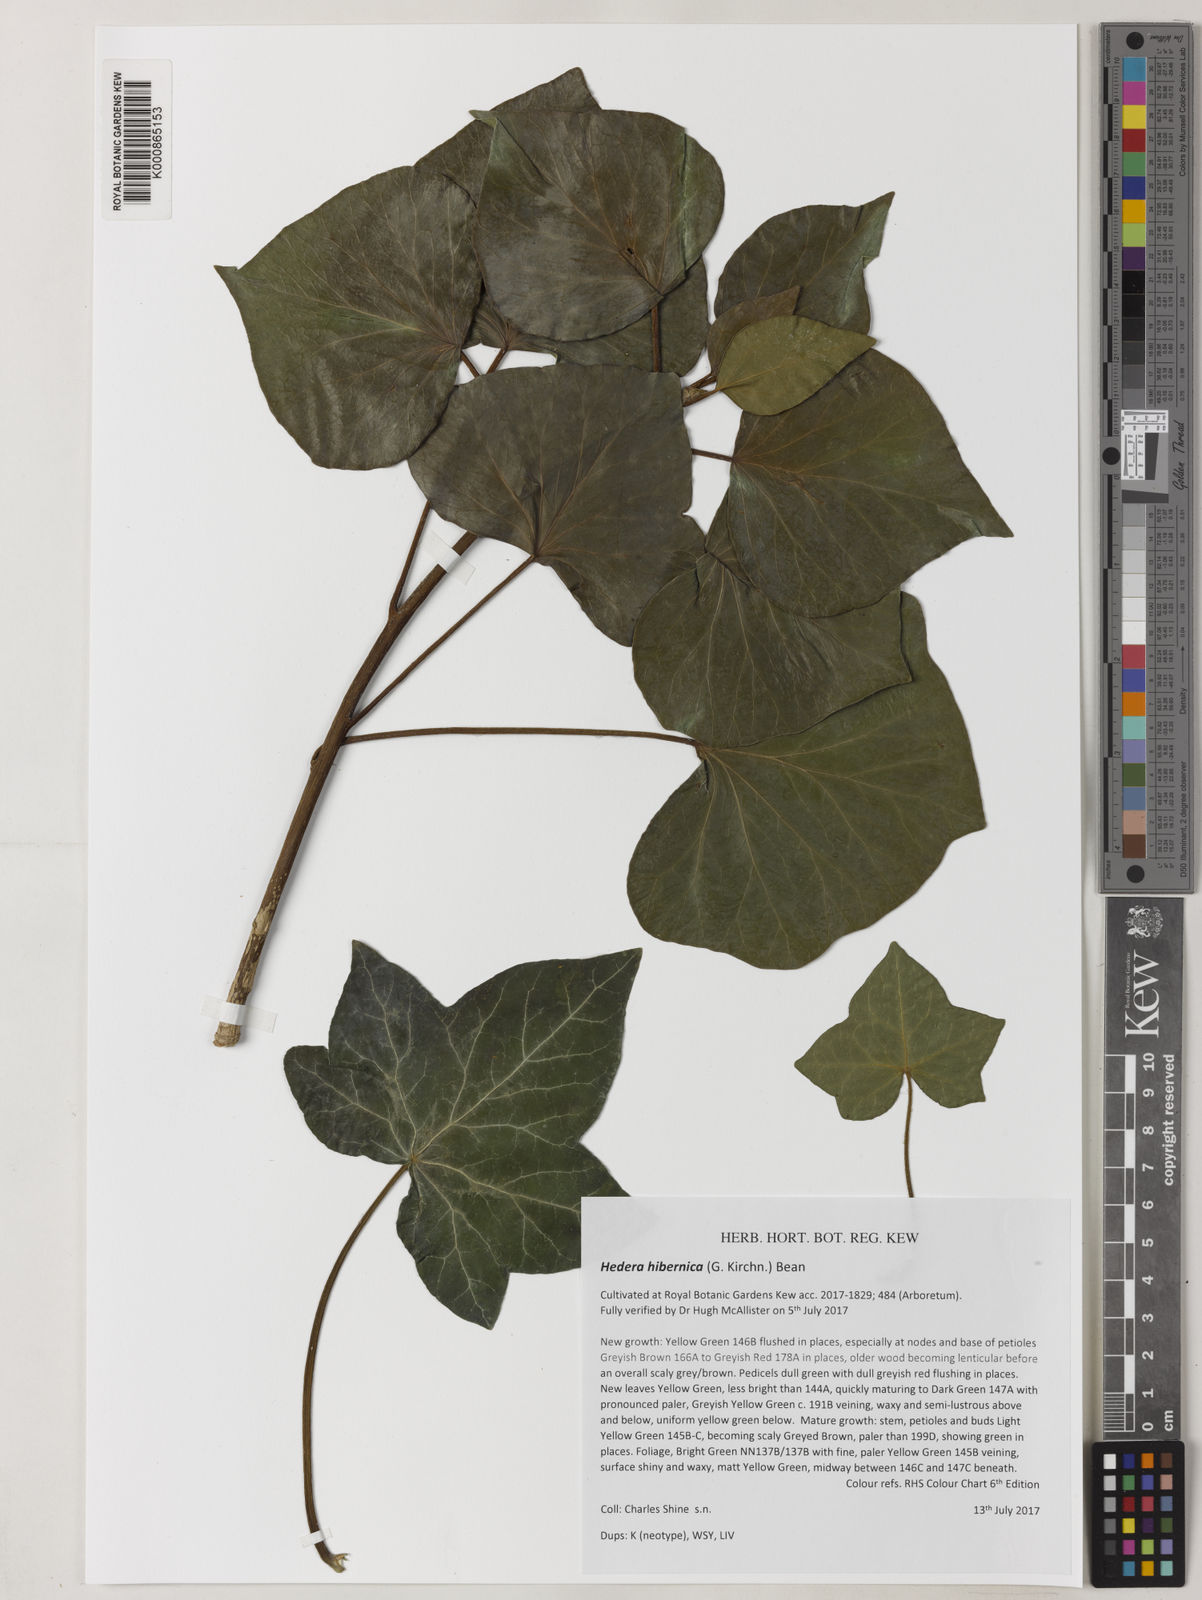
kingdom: Plantae
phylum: Tracheophyta
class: Magnoliopsida
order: Apiales
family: Araliaceae
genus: Hedera
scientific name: Hedera
